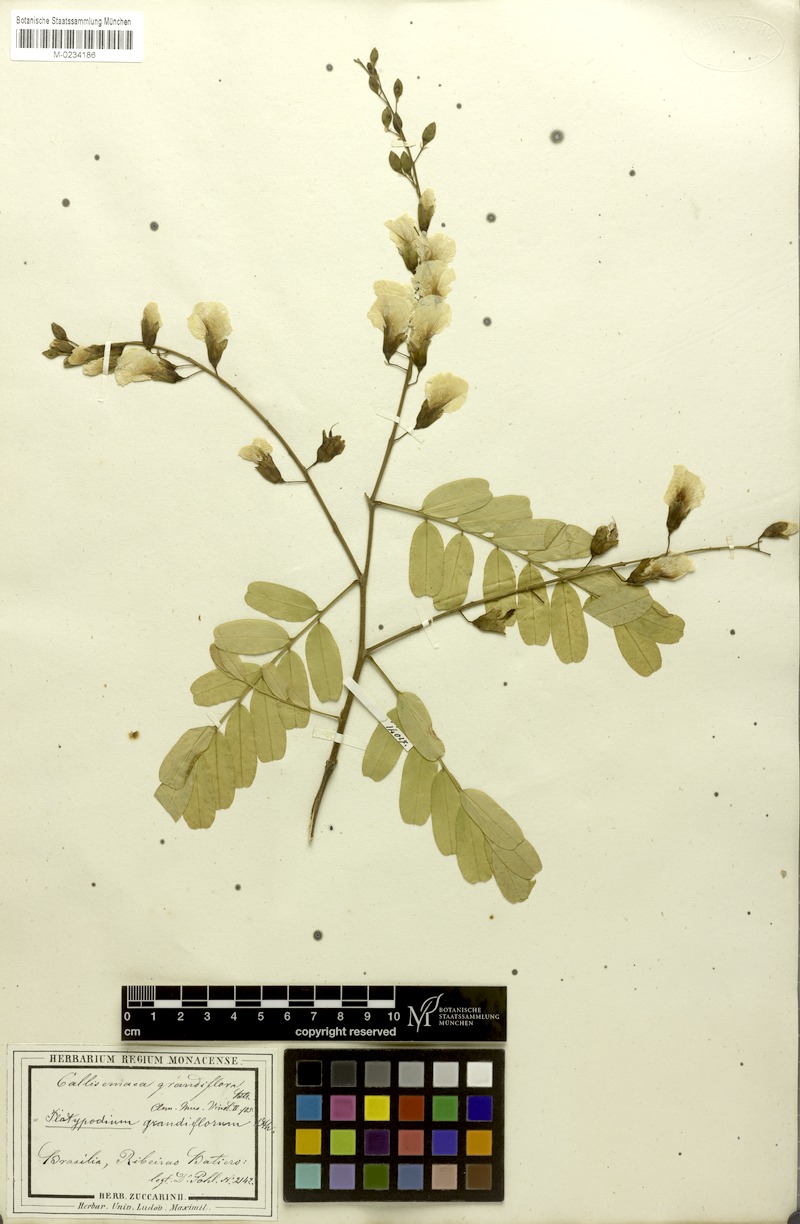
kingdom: Plantae
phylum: Tracheophyta
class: Magnoliopsida
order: Fabales
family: Fabaceae
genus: Platypodium
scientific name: Platypodium elegans
